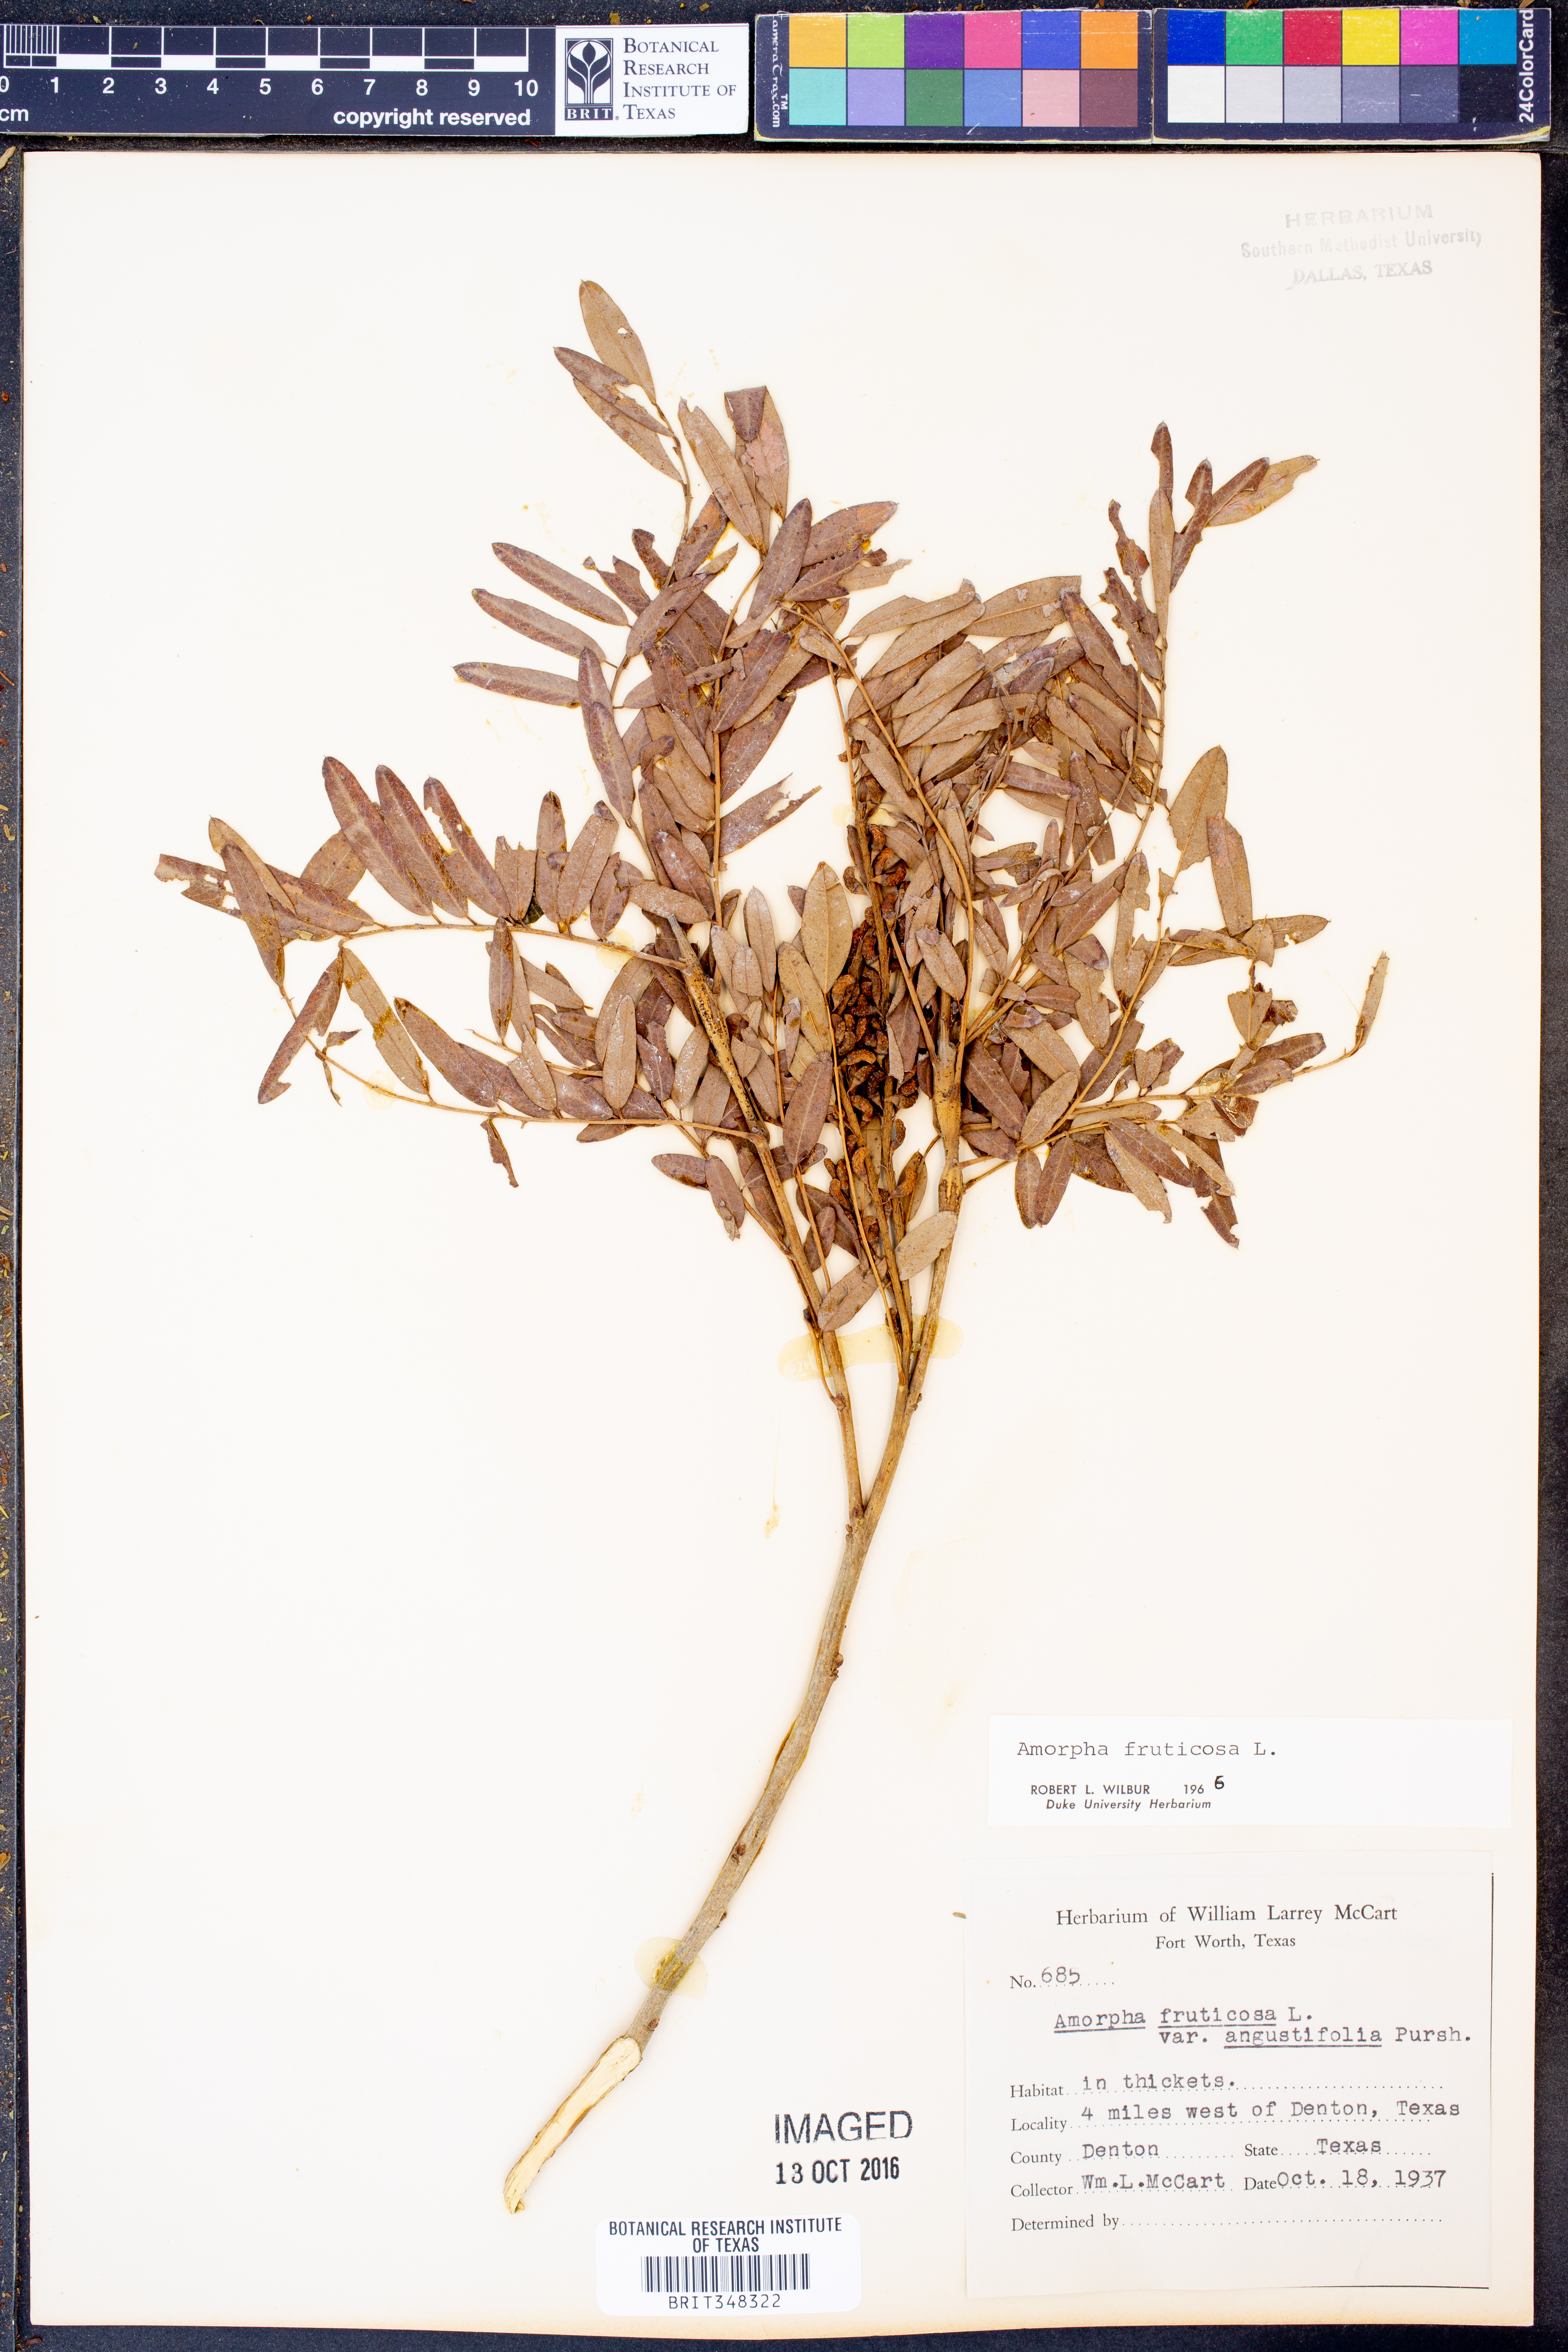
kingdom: Plantae
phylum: Tracheophyta
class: Magnoliopsida
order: Fabales
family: Fabaceae
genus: Amorpha
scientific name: Amorpha fruticosa
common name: False indigo
